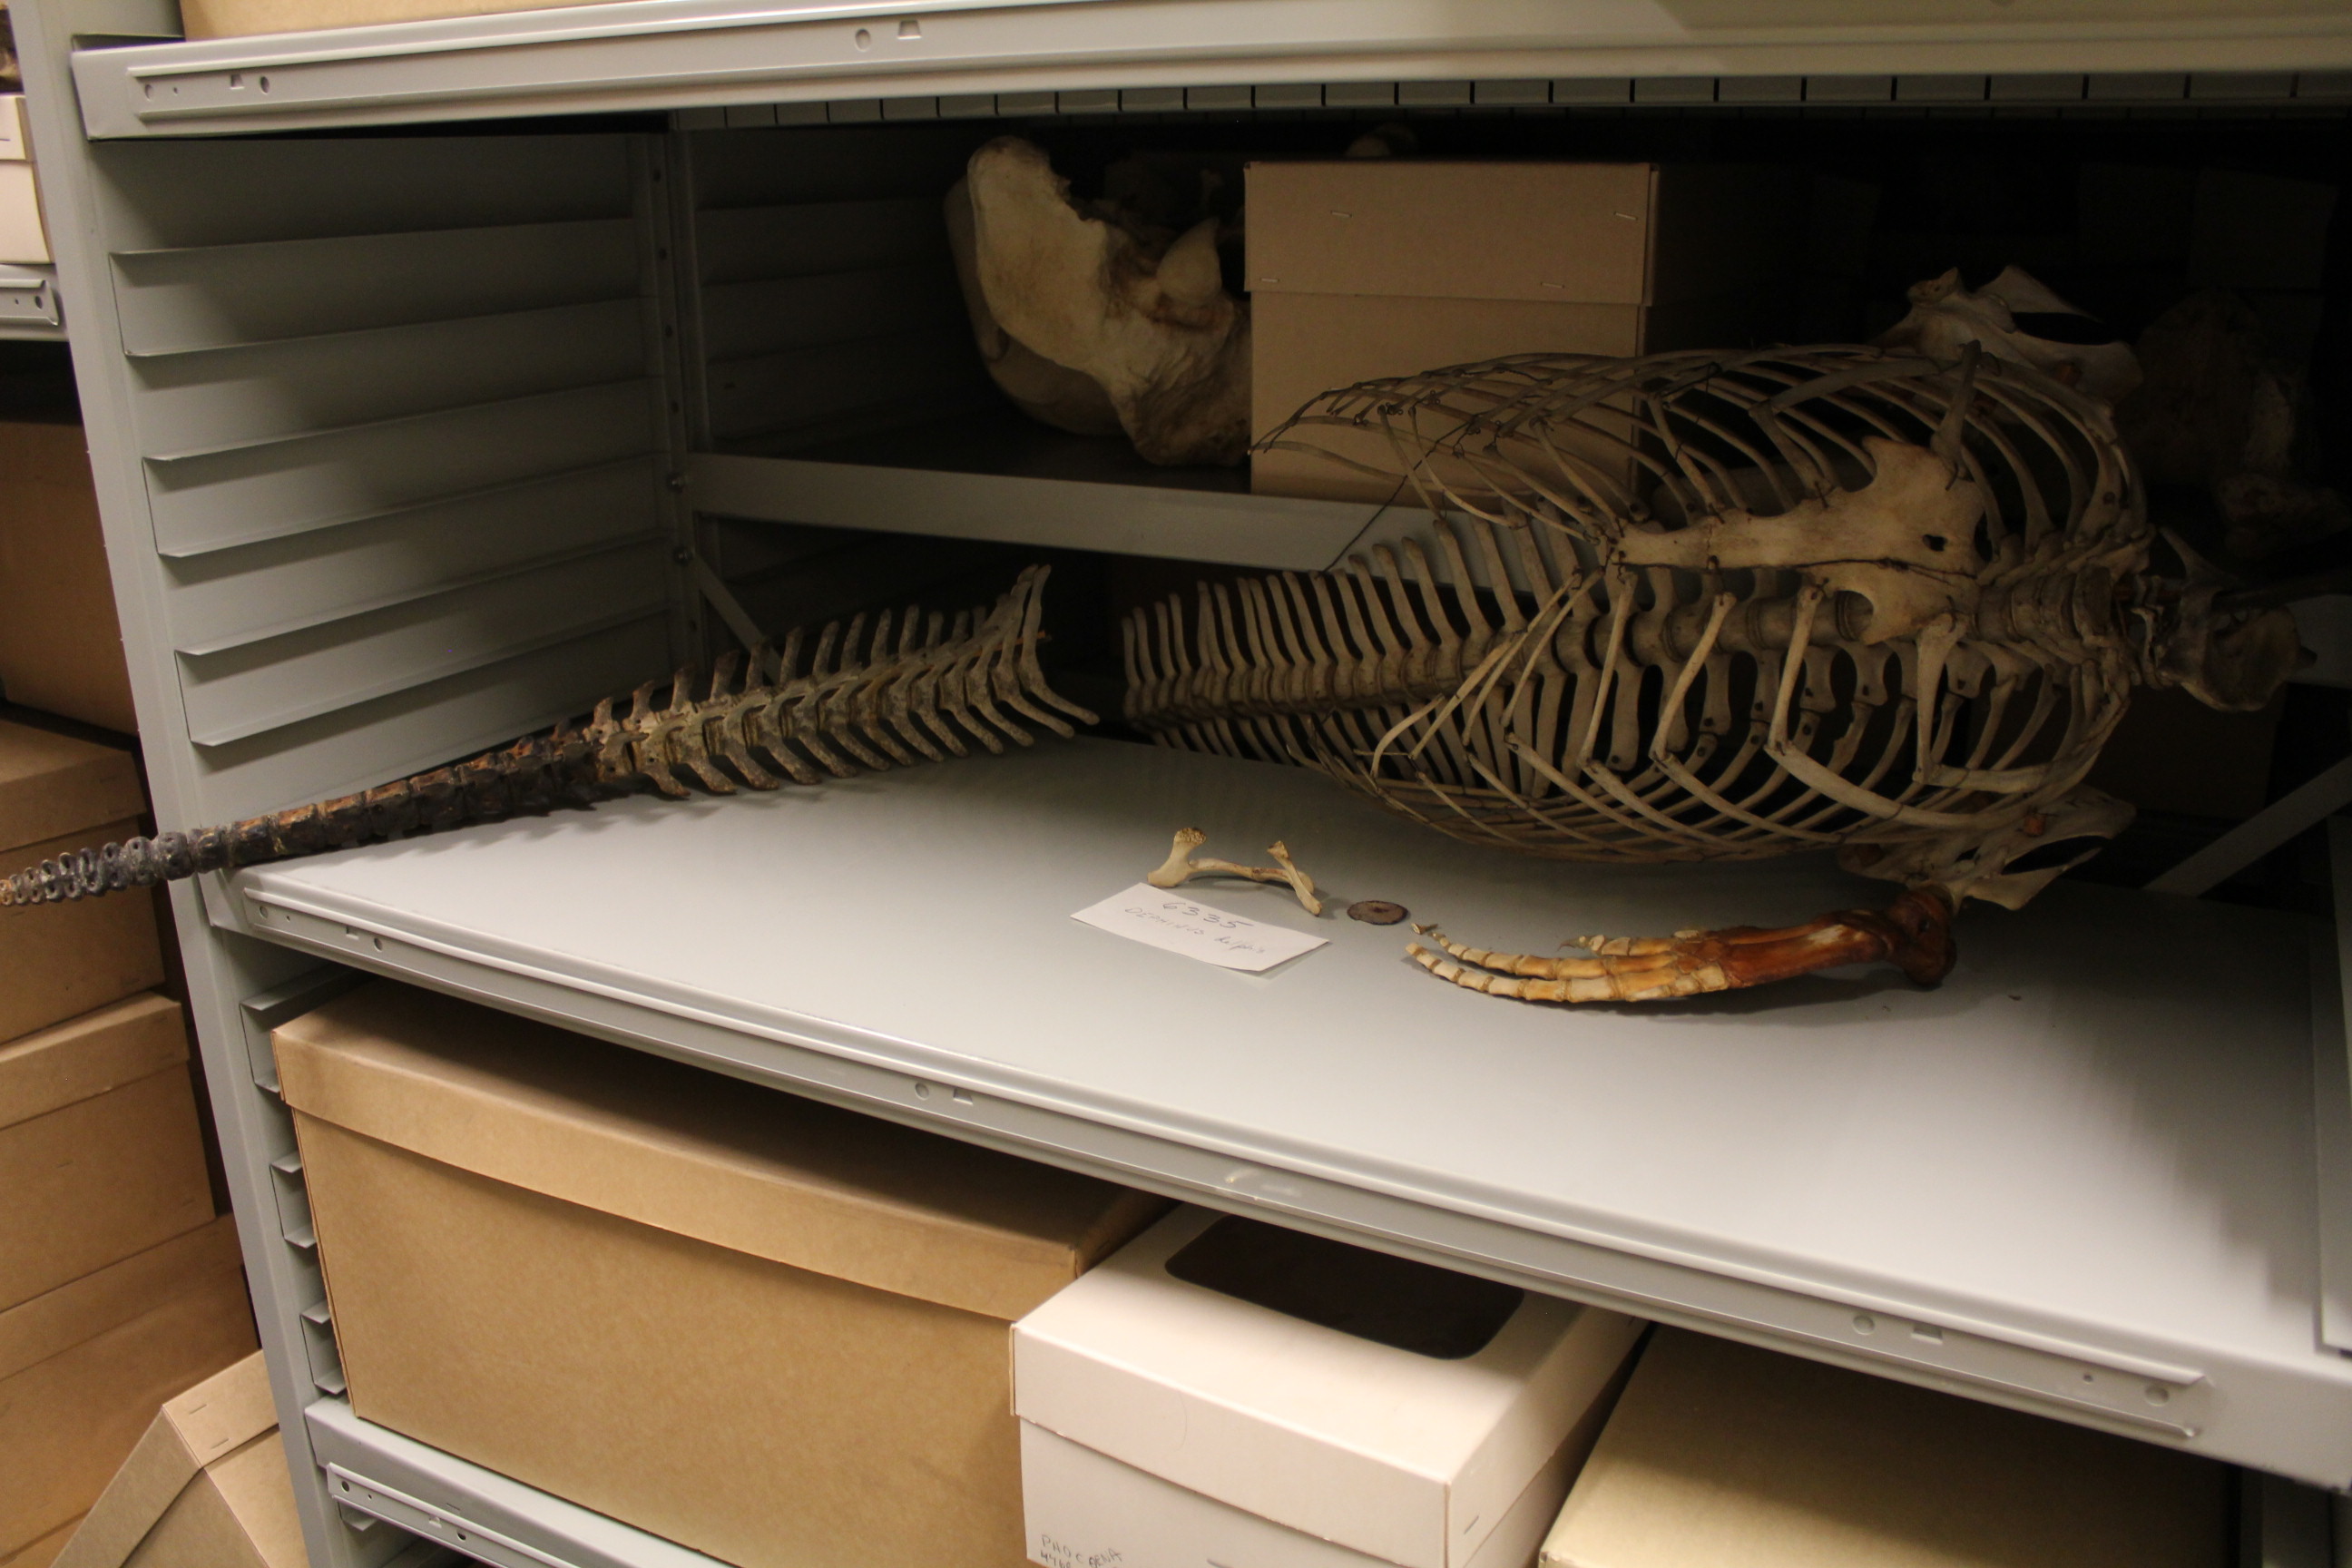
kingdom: Animalia
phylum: Chordata
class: Mammalia
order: Cetacea
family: Delphinidae
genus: Delphinus
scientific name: Delphinus delphis
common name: Common dolphin
